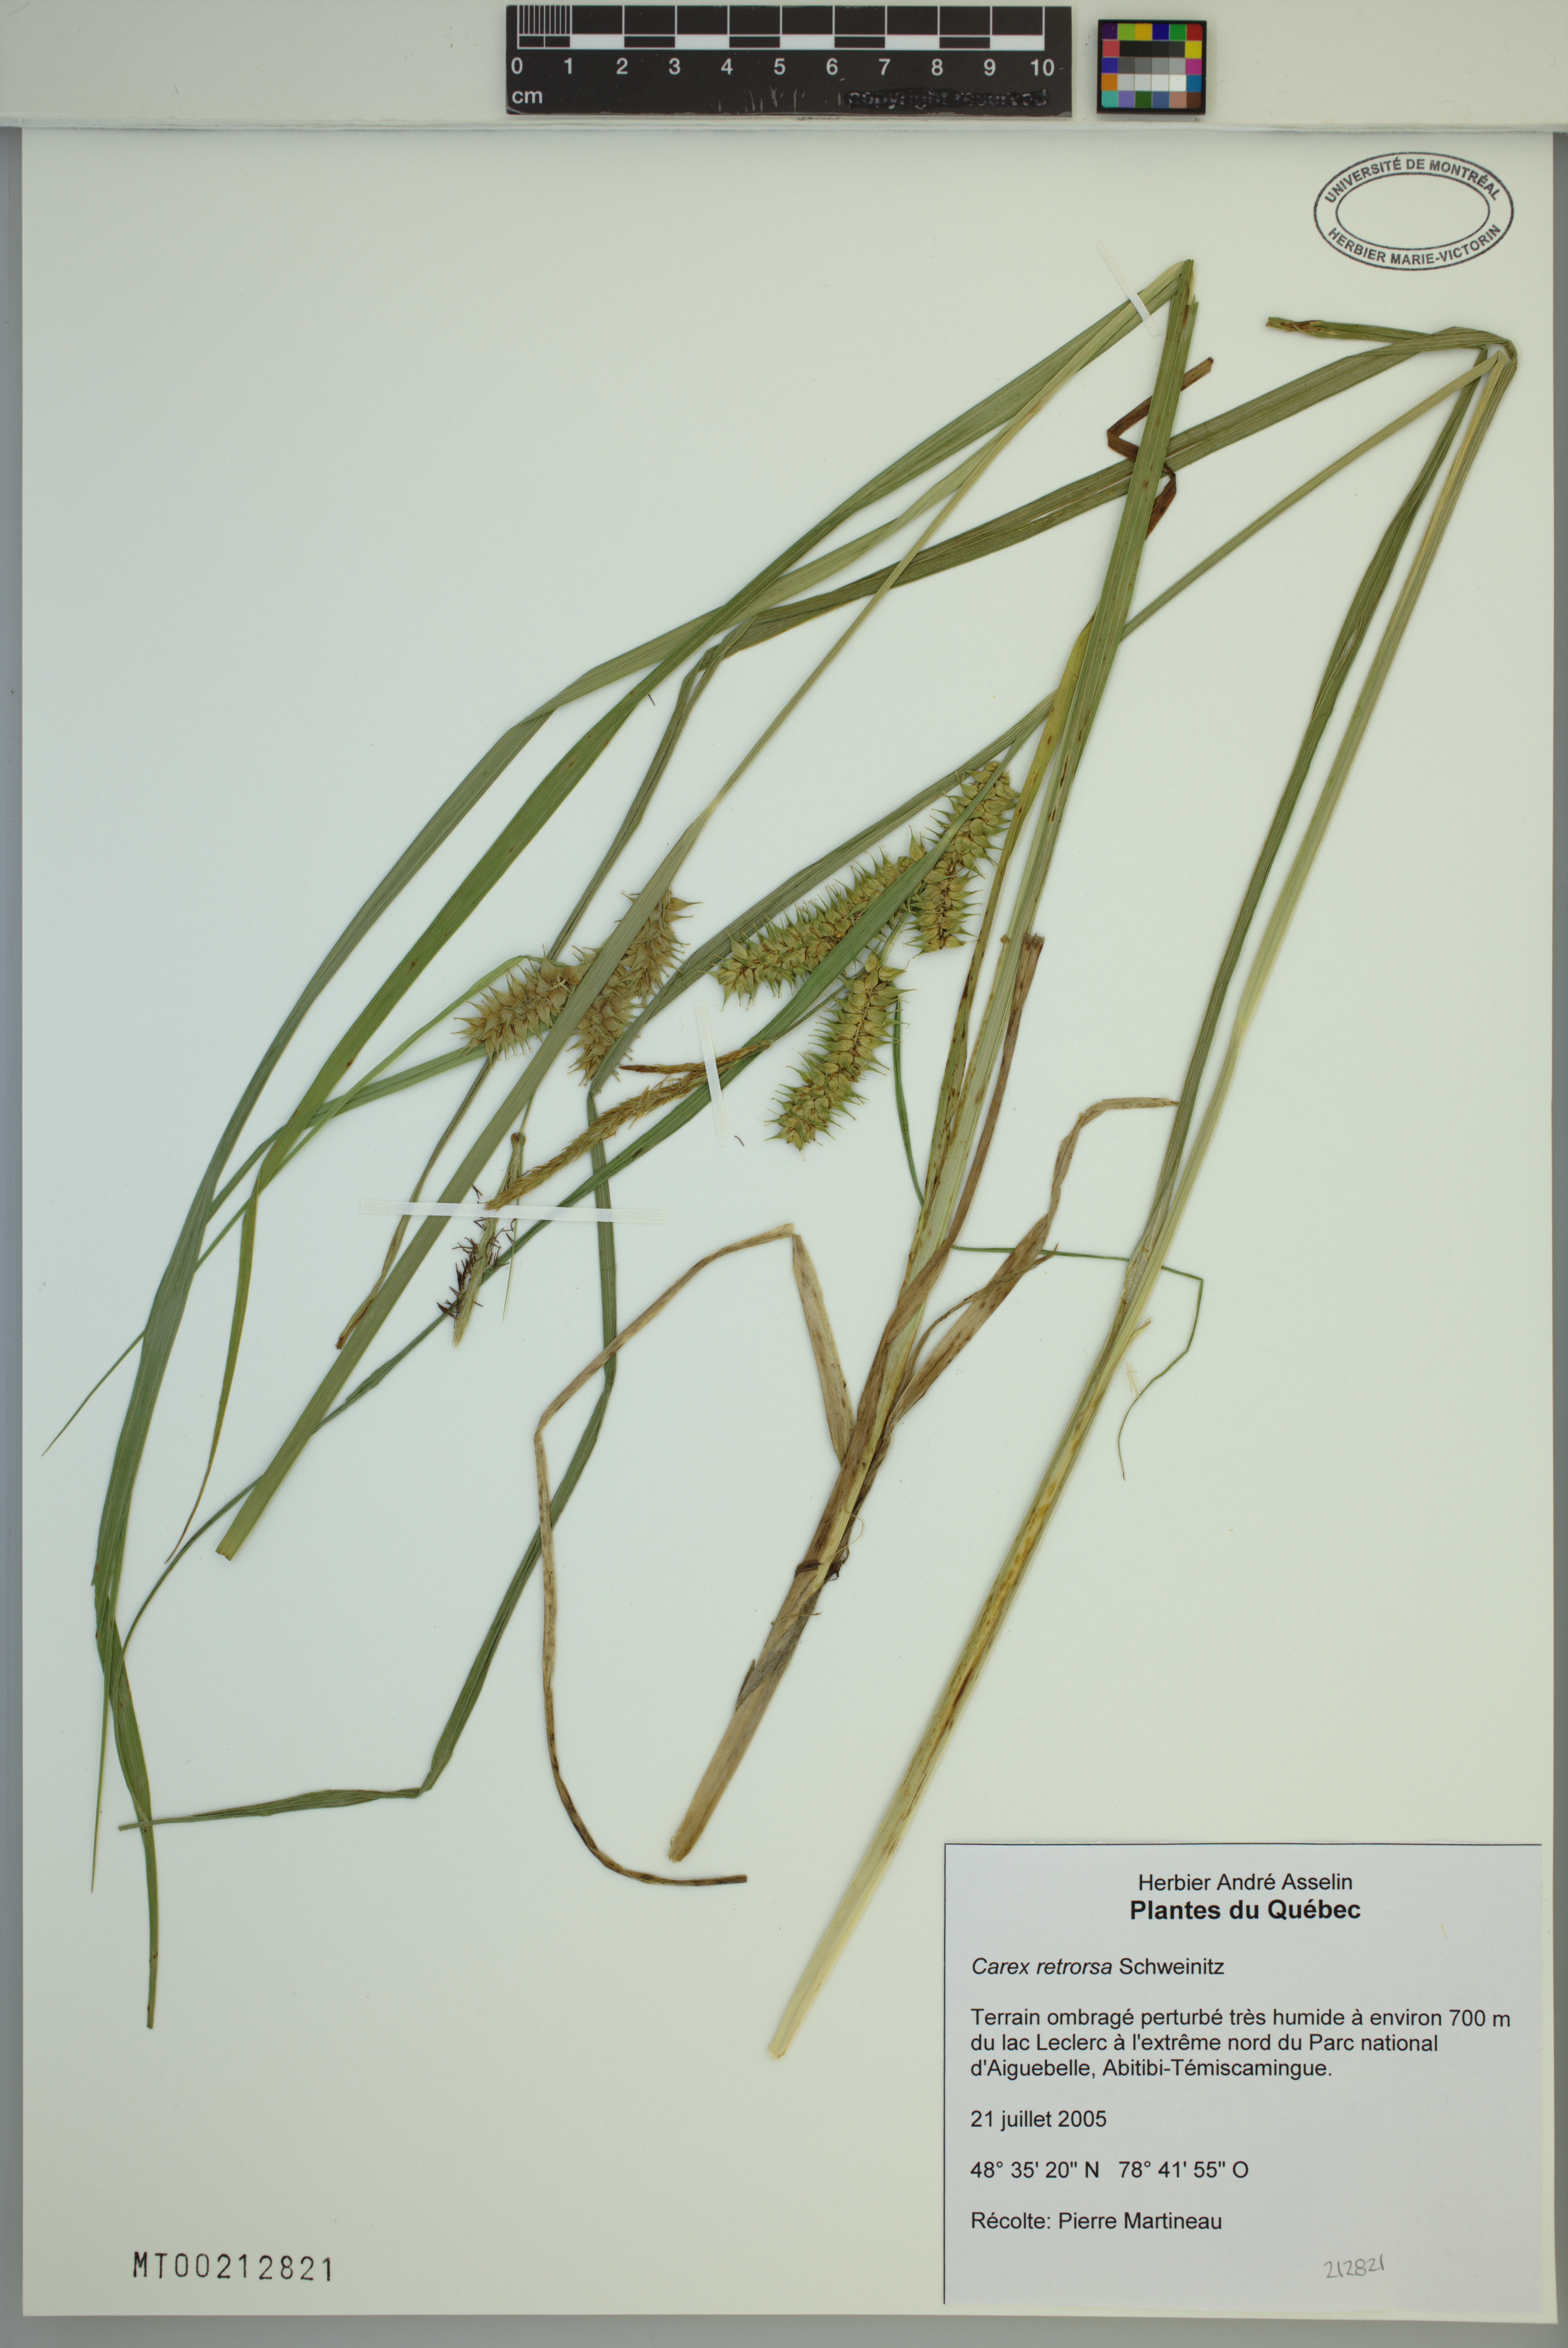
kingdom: Plantae
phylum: Tracheophyta
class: Liliopsida
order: Poales
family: Cyperaceae
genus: Carex
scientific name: Carex retrorsa
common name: Knot-sheath sedge
